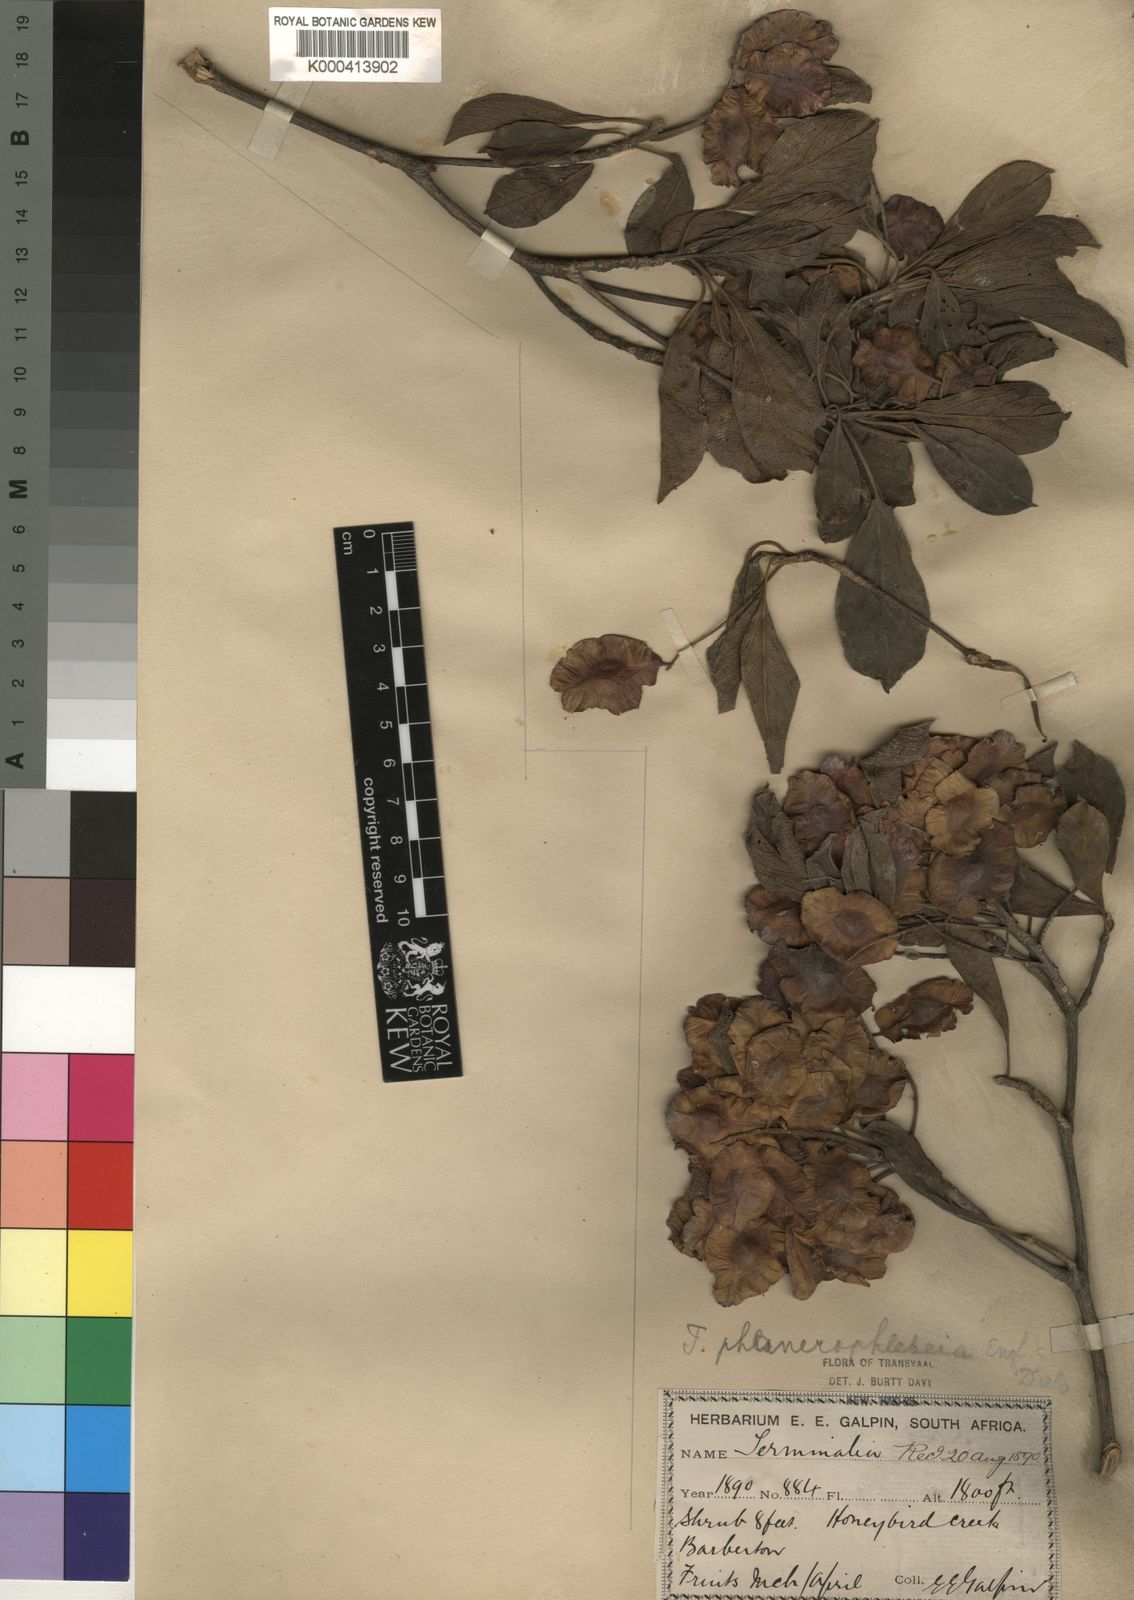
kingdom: Plantae
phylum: Tracheophyta
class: Magnoliopsida
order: Myrtales
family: Combretaceae
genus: Terminalia
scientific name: Terminalia phanerophlebia
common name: Lebombo cluster-leaf
